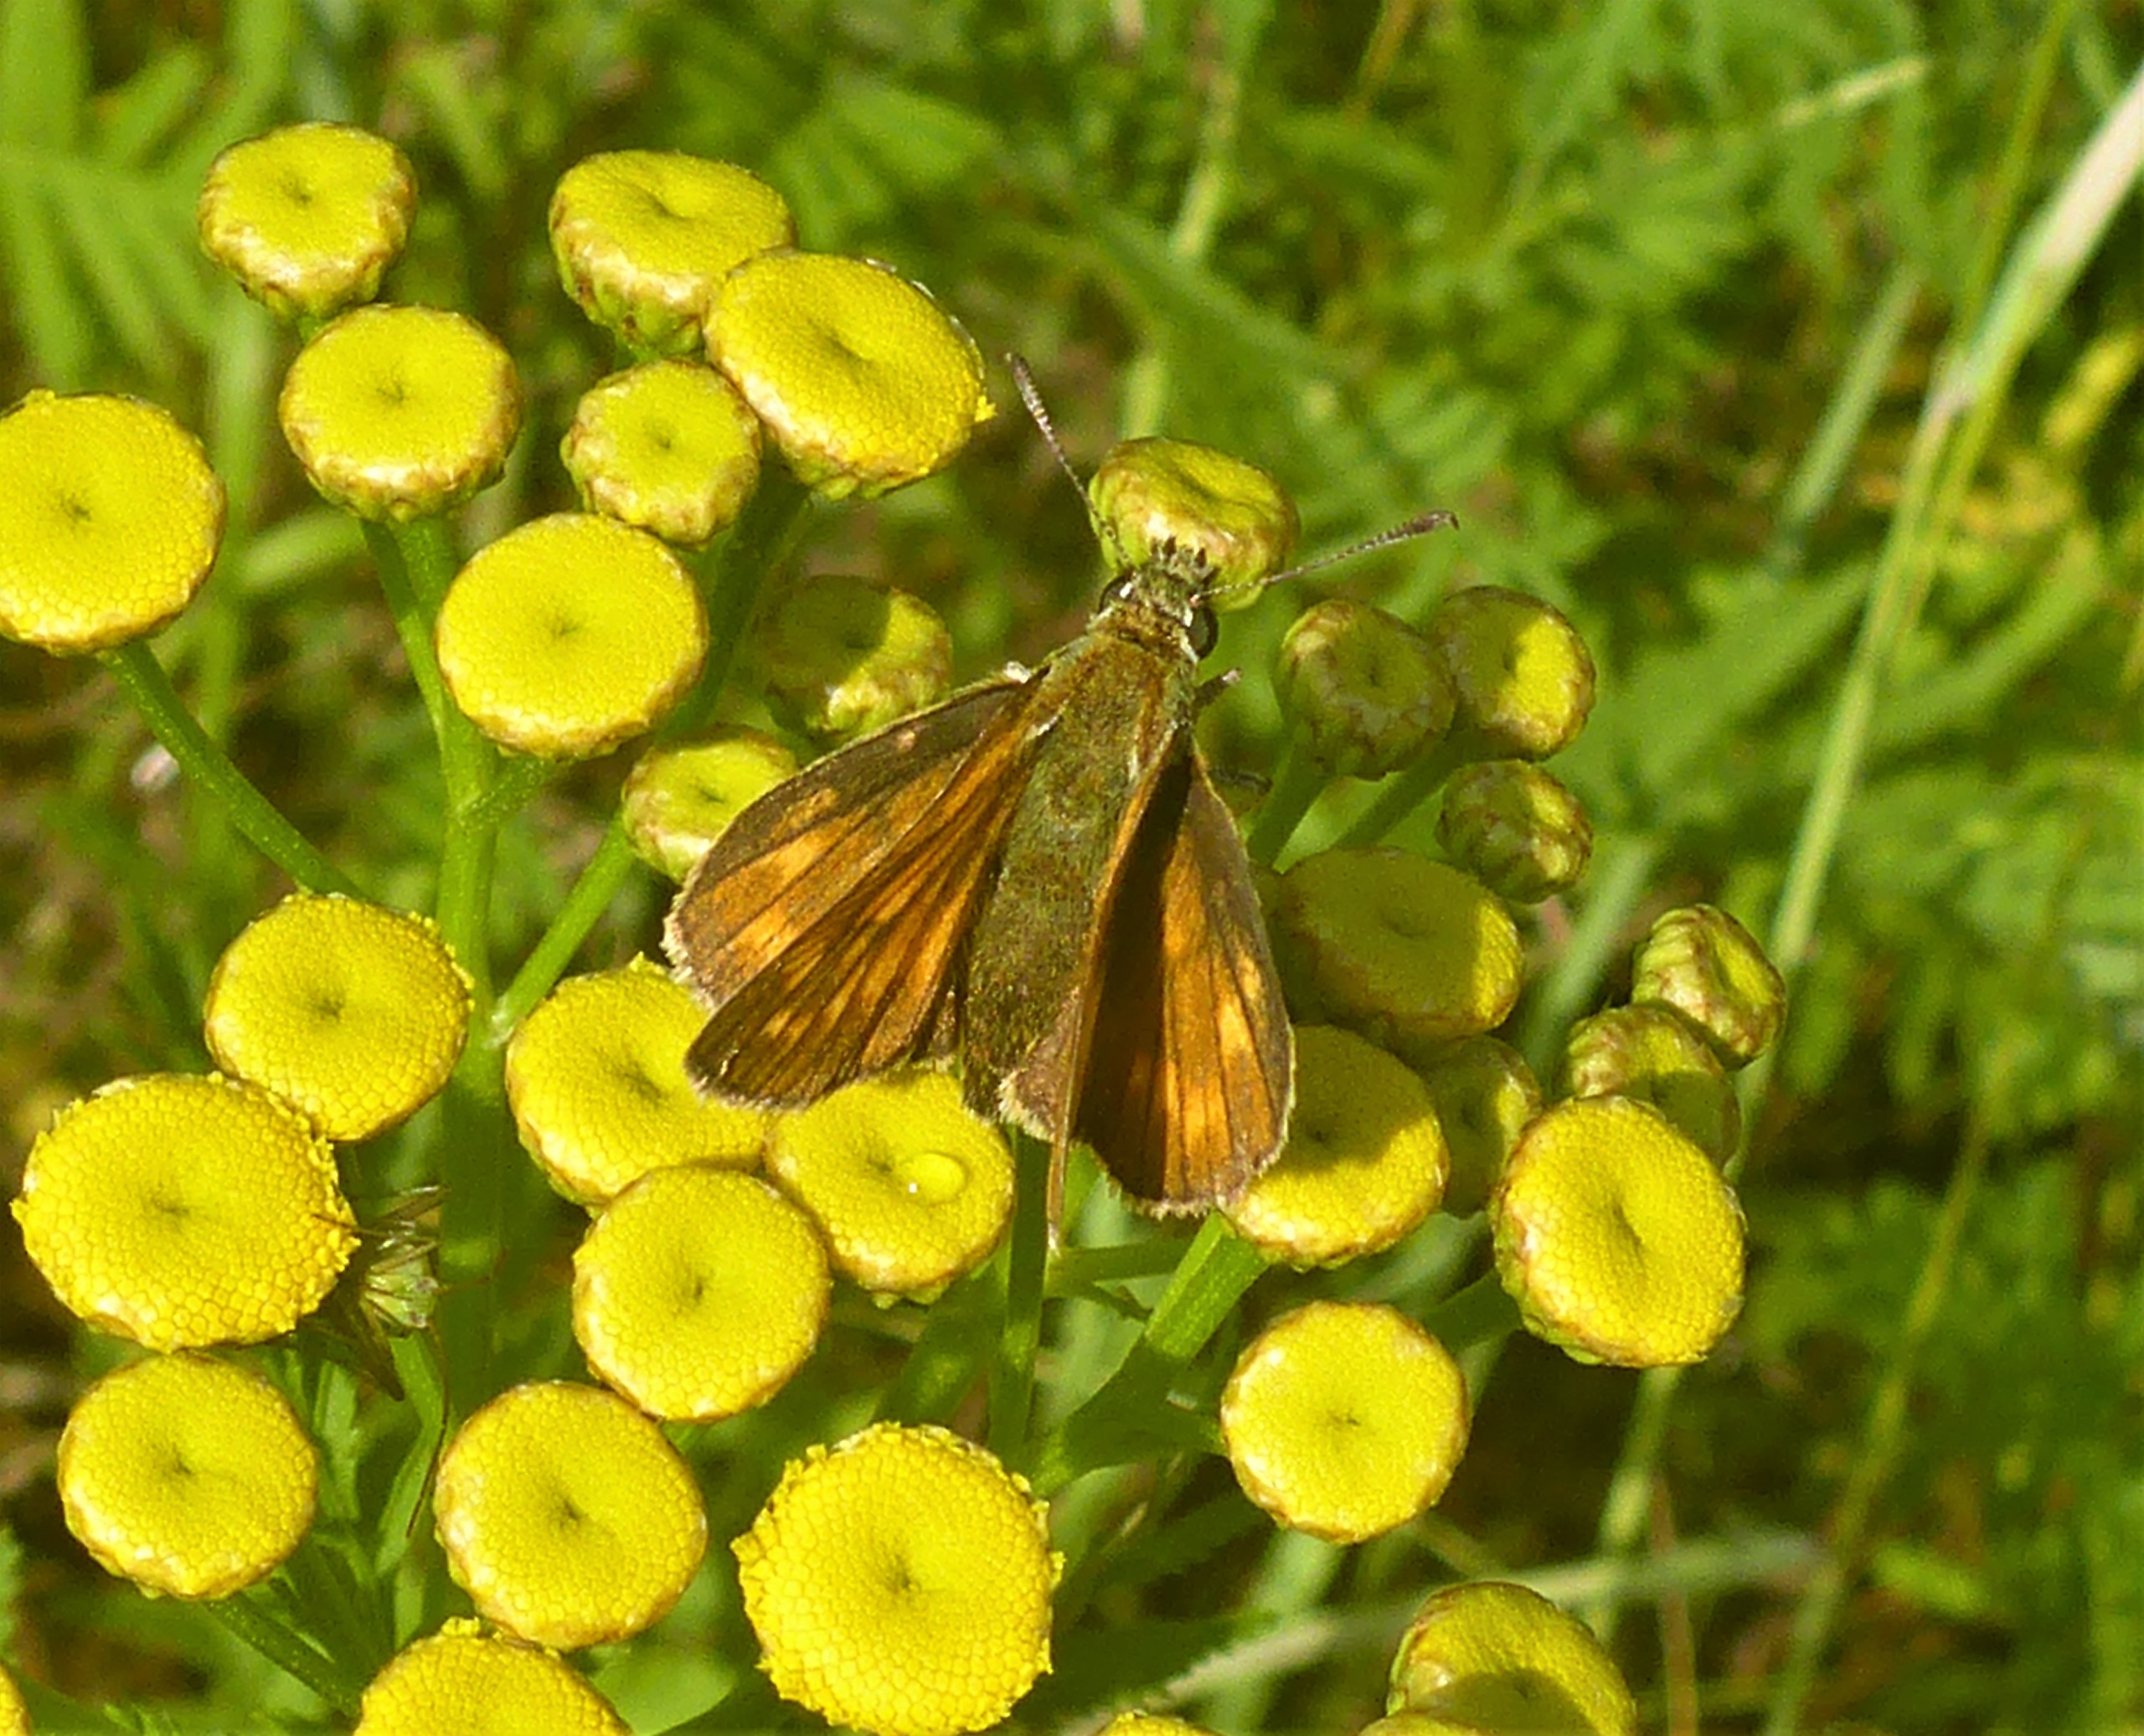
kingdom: Animalia
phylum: Arthropoda
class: Insecta
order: Lepidoptera
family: Hesperiidae
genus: Ochlodes
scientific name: Ochlodes venata
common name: Stor bredpande
